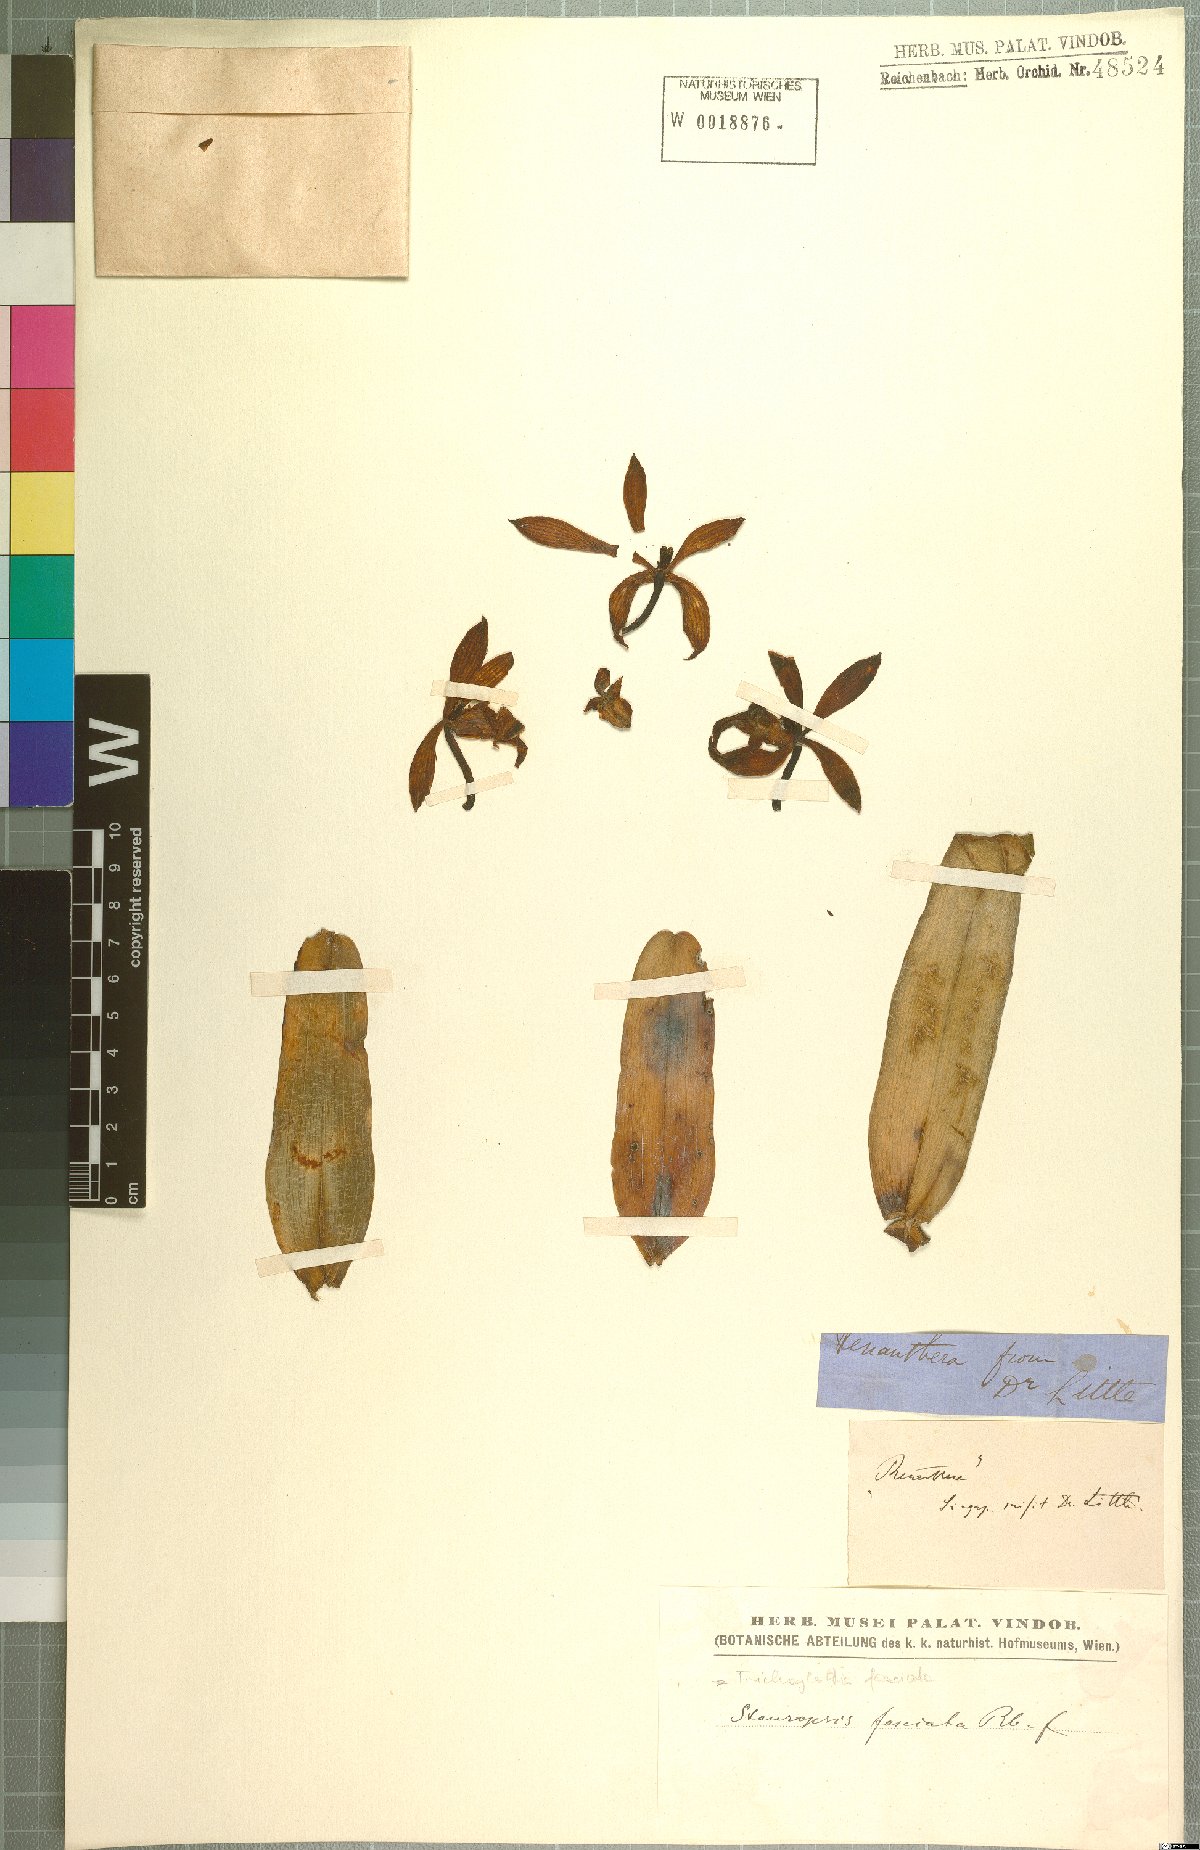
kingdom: Plantae
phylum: Tracheophyta
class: Liliopsida
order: Asparagales
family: Orchidaceae
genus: Trichoglottis
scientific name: Trichoglottis fasciata
